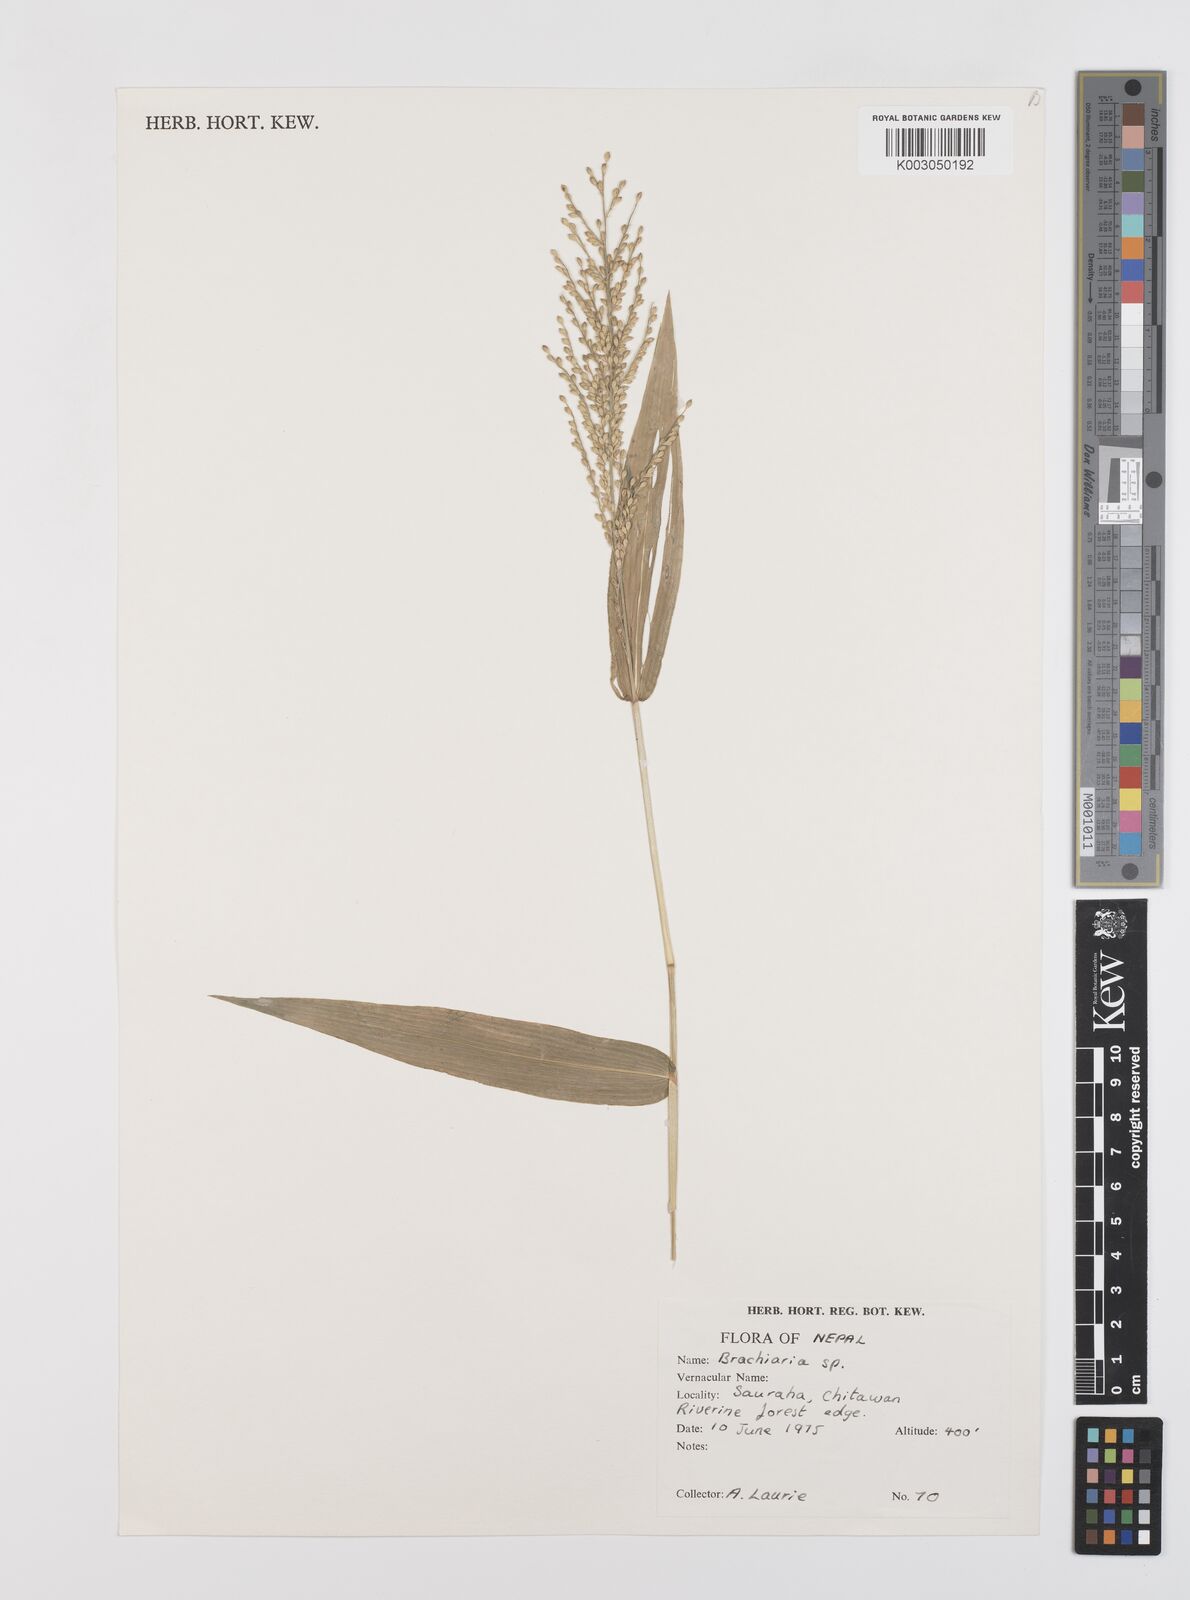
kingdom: Plantae
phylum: Tracheophyta
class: Liliopsida
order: Poales
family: Poaceae
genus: Urochloa
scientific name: Urochloa ramosa
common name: Browntop millet
